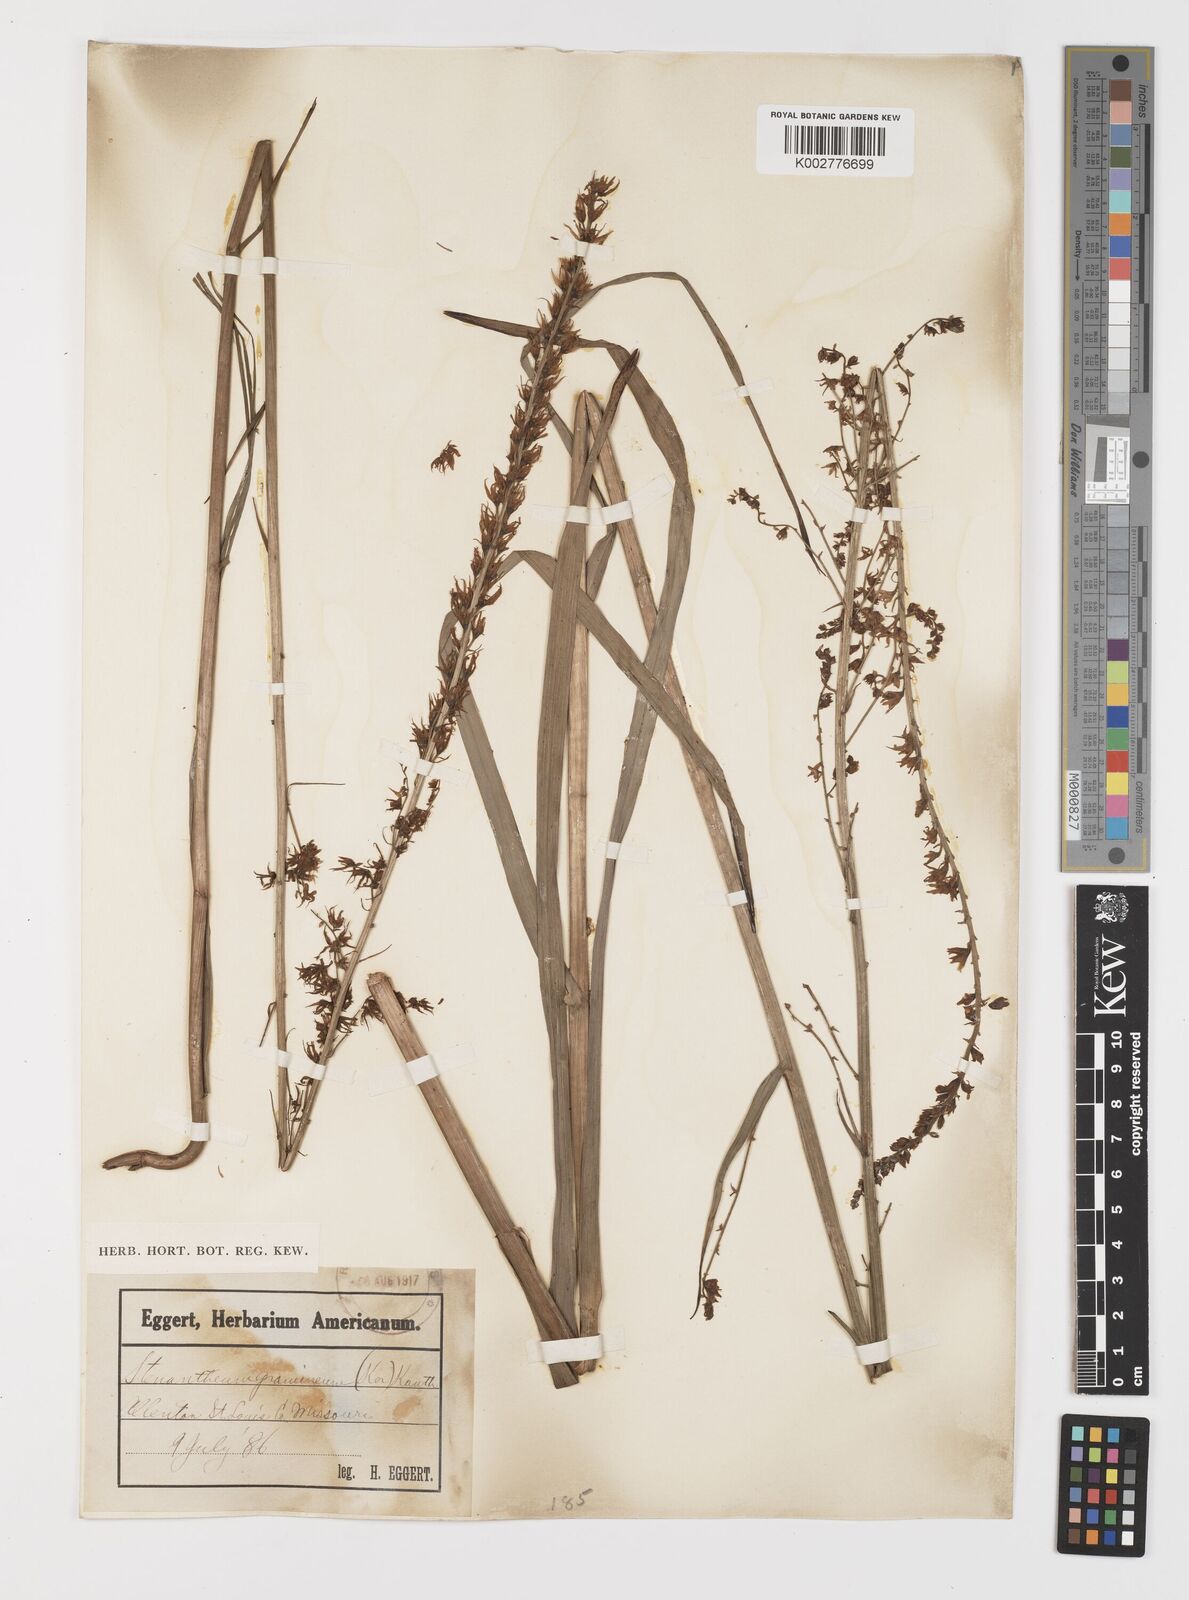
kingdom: Plantae
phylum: Tracheophyta
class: Liliopsida
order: Liliales
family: Melanthiaceae
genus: Stenanthium
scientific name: Stenanthium gramineum
